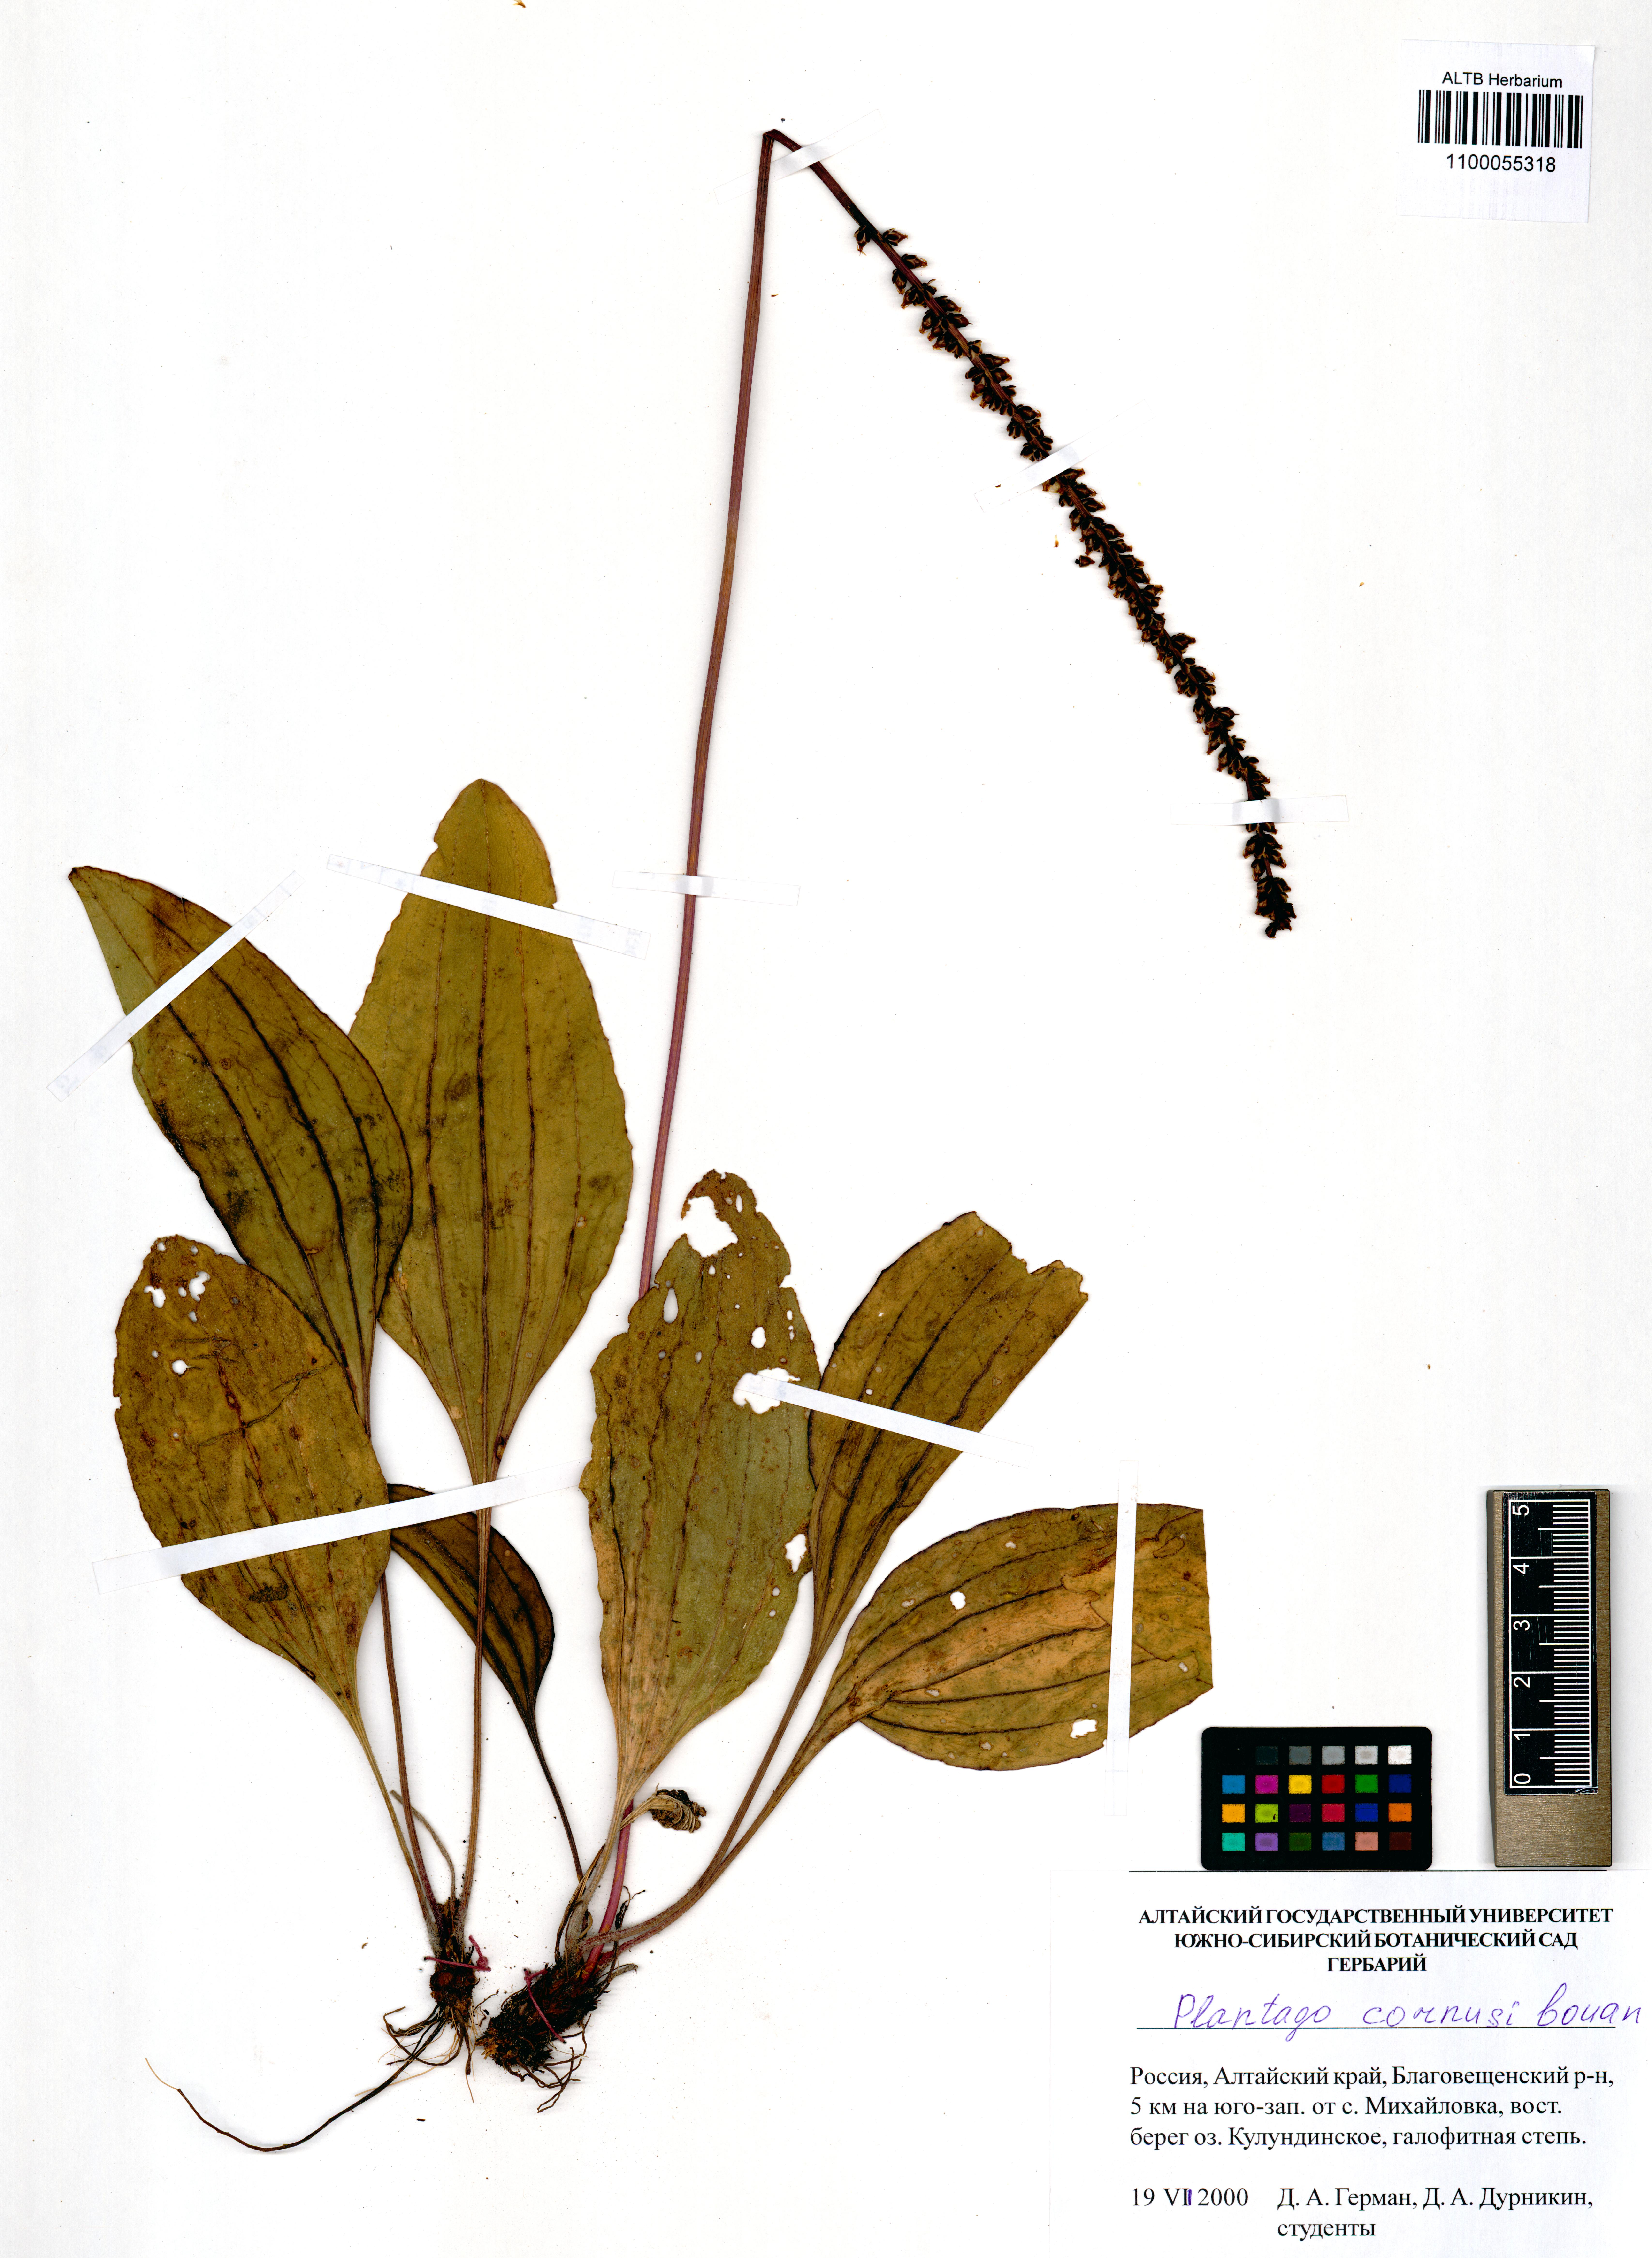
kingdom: Plantae
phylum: Tracheophyta
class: Magnoliopsida
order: Lamiales
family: Plantaginaceae
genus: Plantago
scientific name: Plantago cornuti
